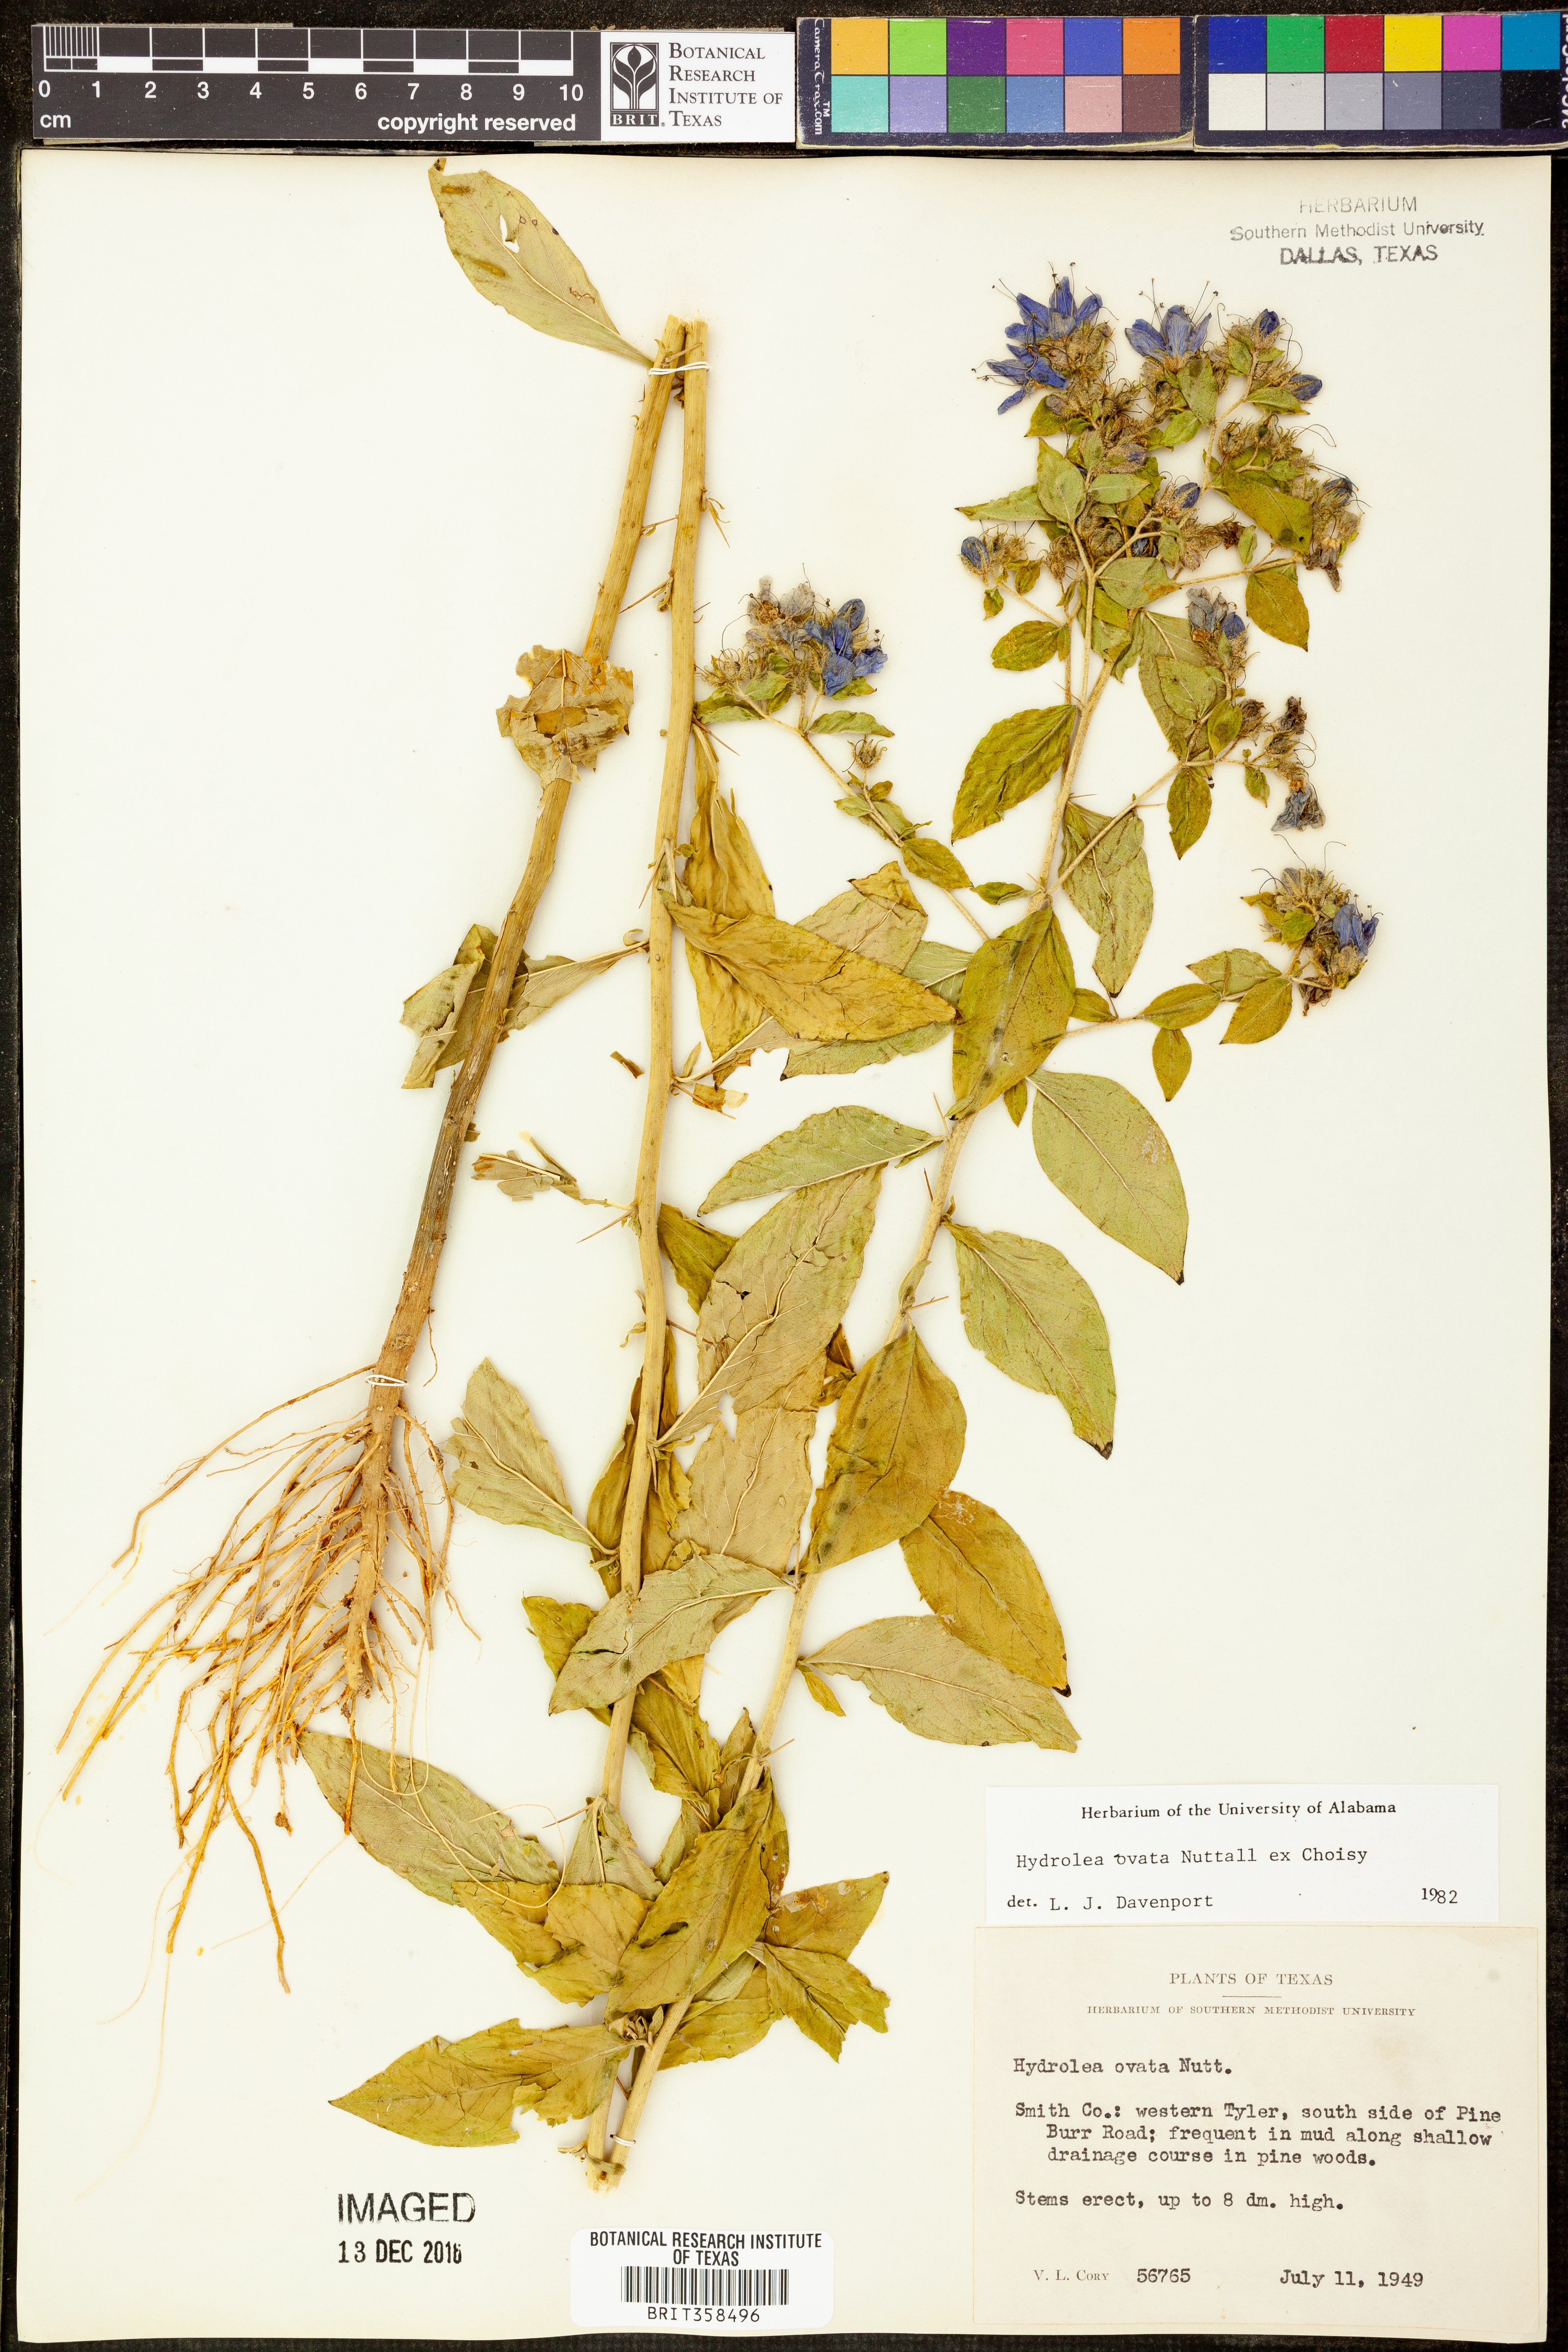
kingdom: Plantae
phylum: Tracheophyta
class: Magnoliopsida
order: Solanales
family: Hydroleaceae
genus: Hydrolea
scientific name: Hydrolea ovata
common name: Ovate false fiddleleaf
